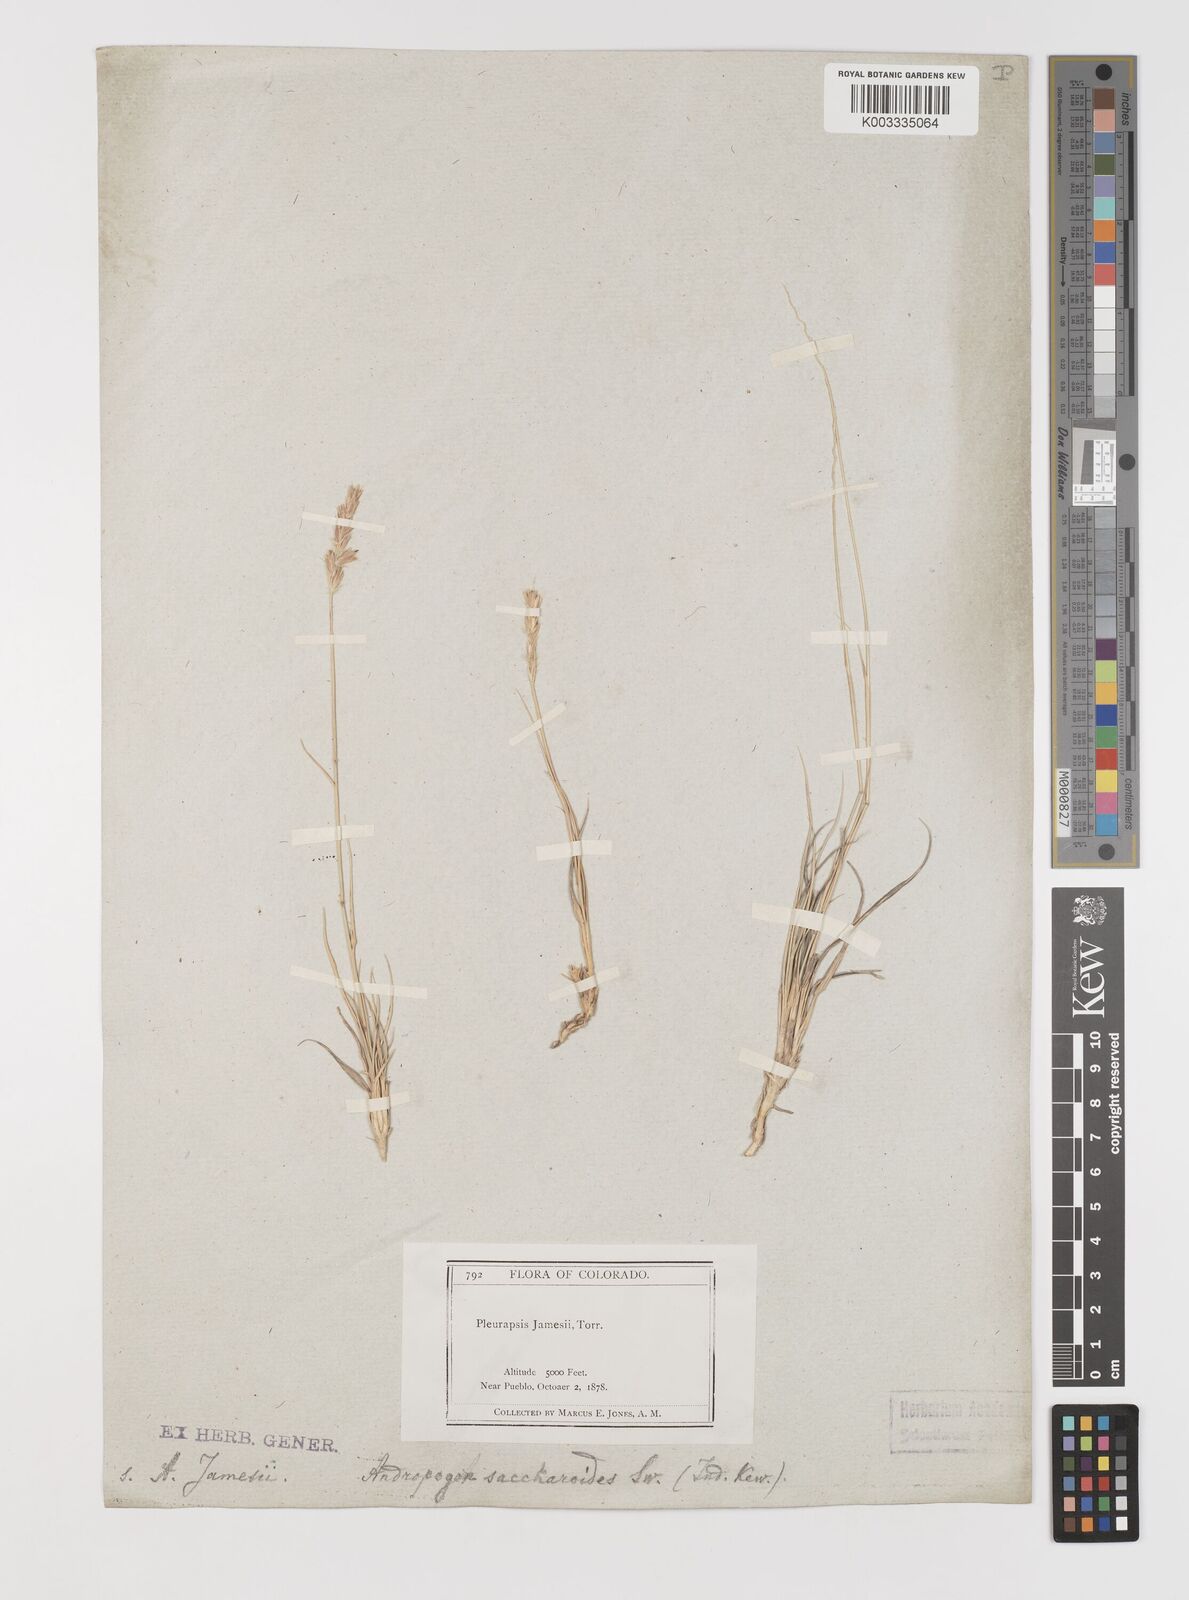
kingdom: Plantae
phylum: Tracheophyta
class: Liliopsida
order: Poales
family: Poaceae
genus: Hilaria
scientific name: Hilaria jamesii
